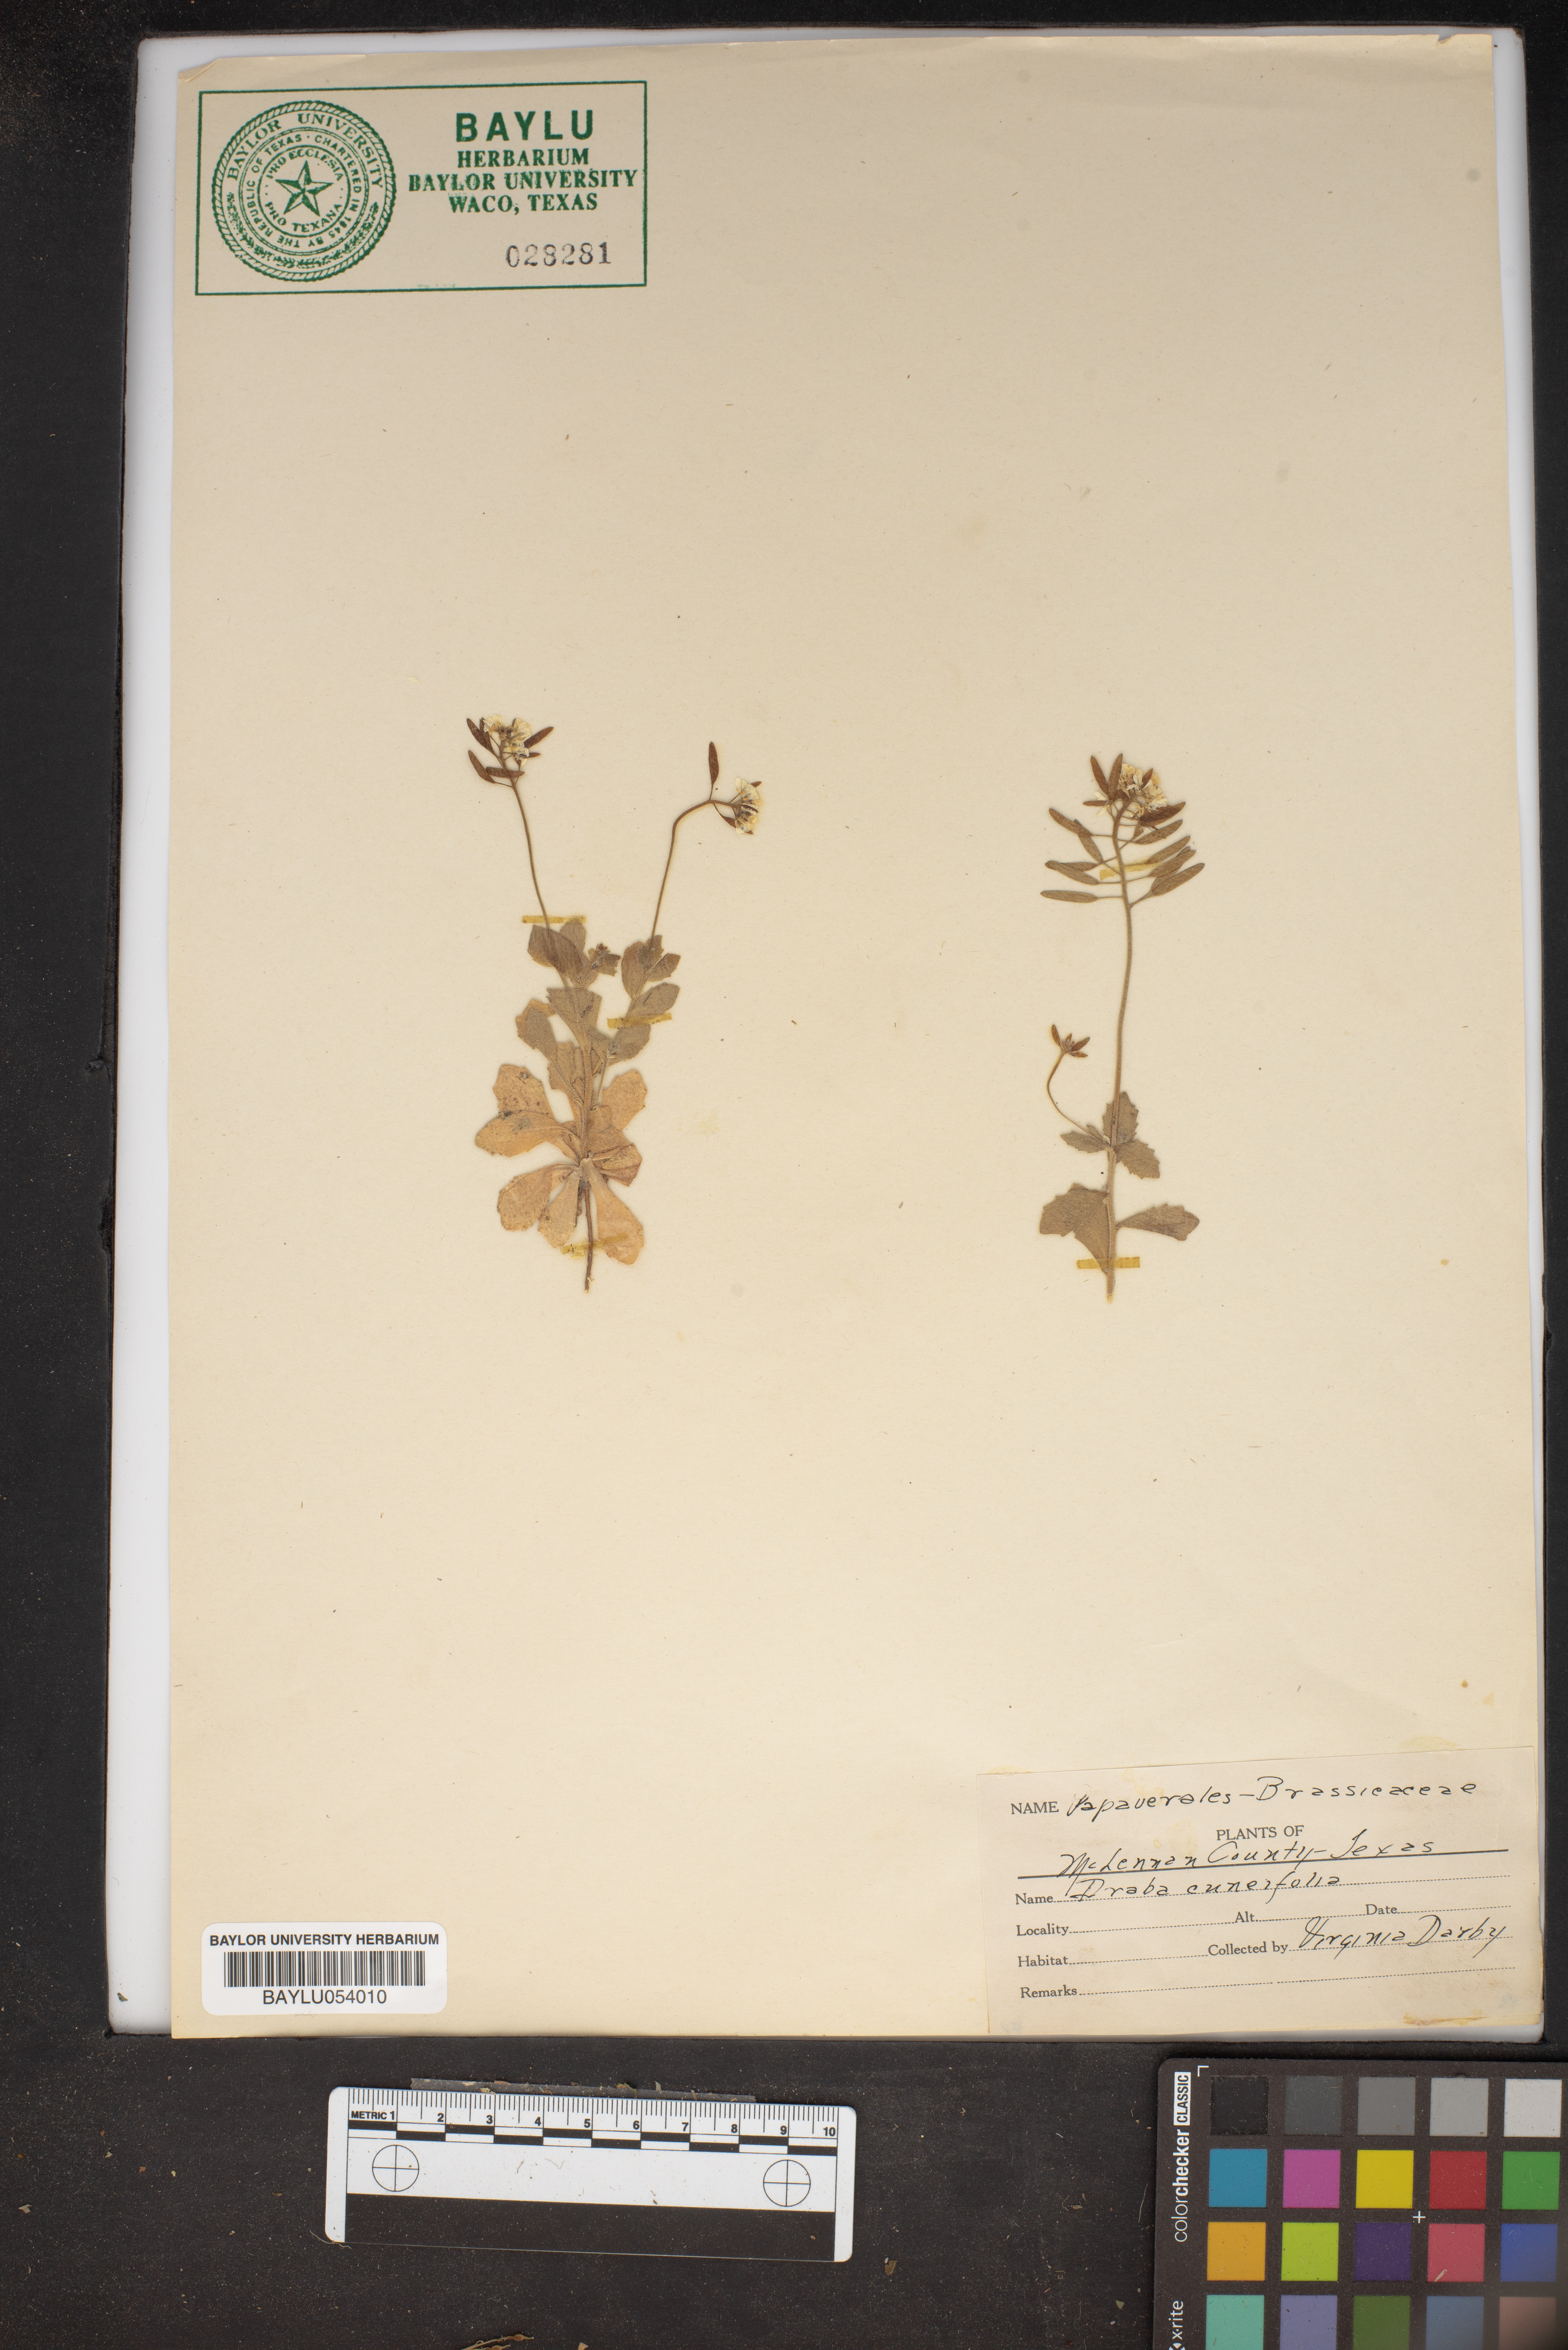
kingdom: Plantae
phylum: Tracheophyta
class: Magnoliopsida
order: Brassicales
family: Brassicaceae
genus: Tomostima
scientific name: Tomostima cuneifolia
